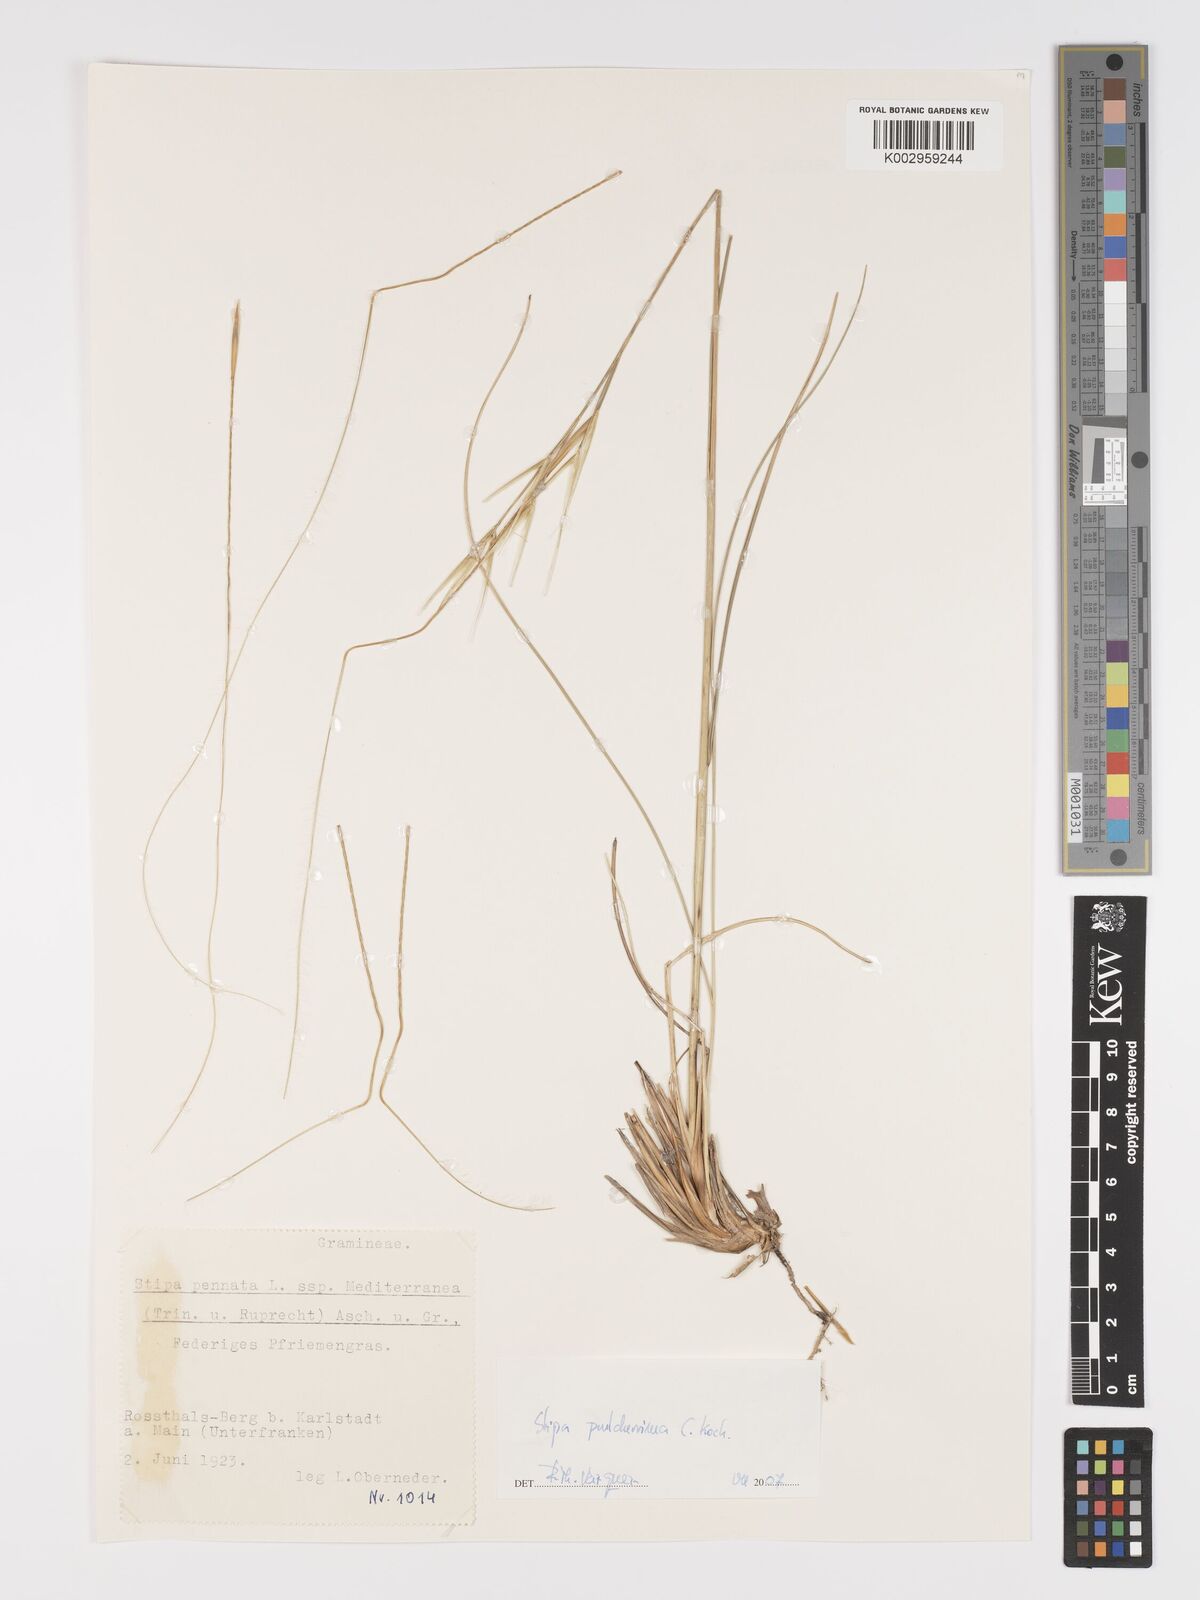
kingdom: Plantae
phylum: Tracheophyta
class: Liliopsida
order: Poales
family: Poaceae
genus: Stipa
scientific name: Stipa pulcherrima
